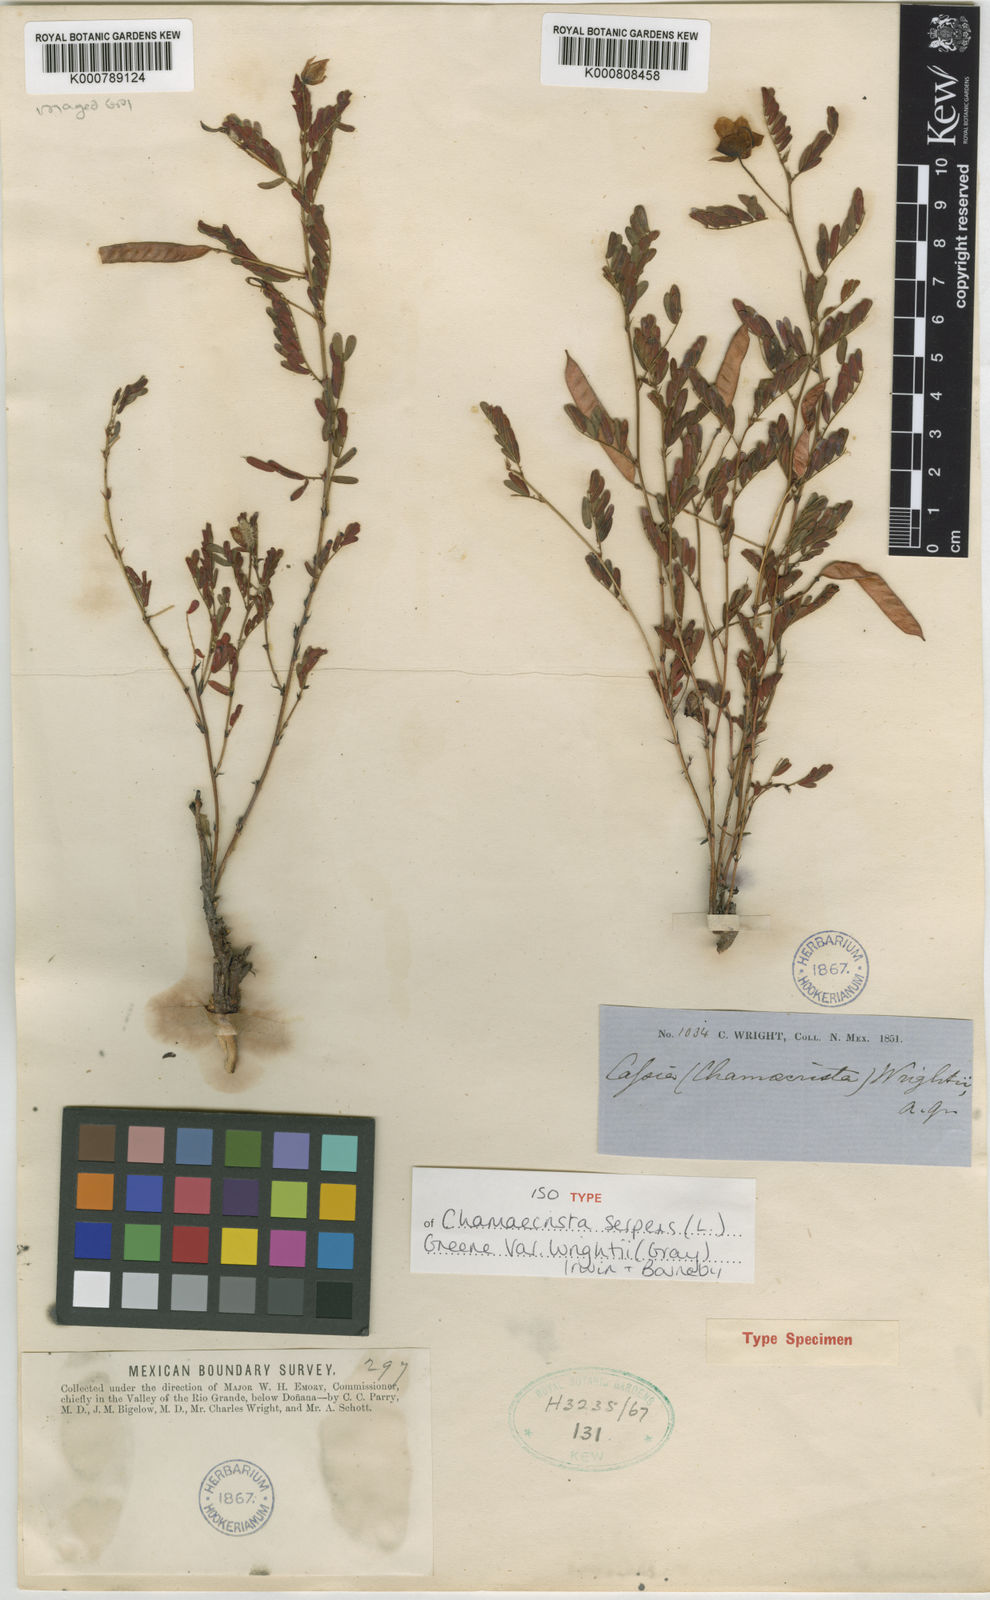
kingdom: Plantae
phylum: Tracheophyta
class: Magnoliopsida
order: Fabales
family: Fabaceae
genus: Chamaecrista
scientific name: Chamaecrista serpens
